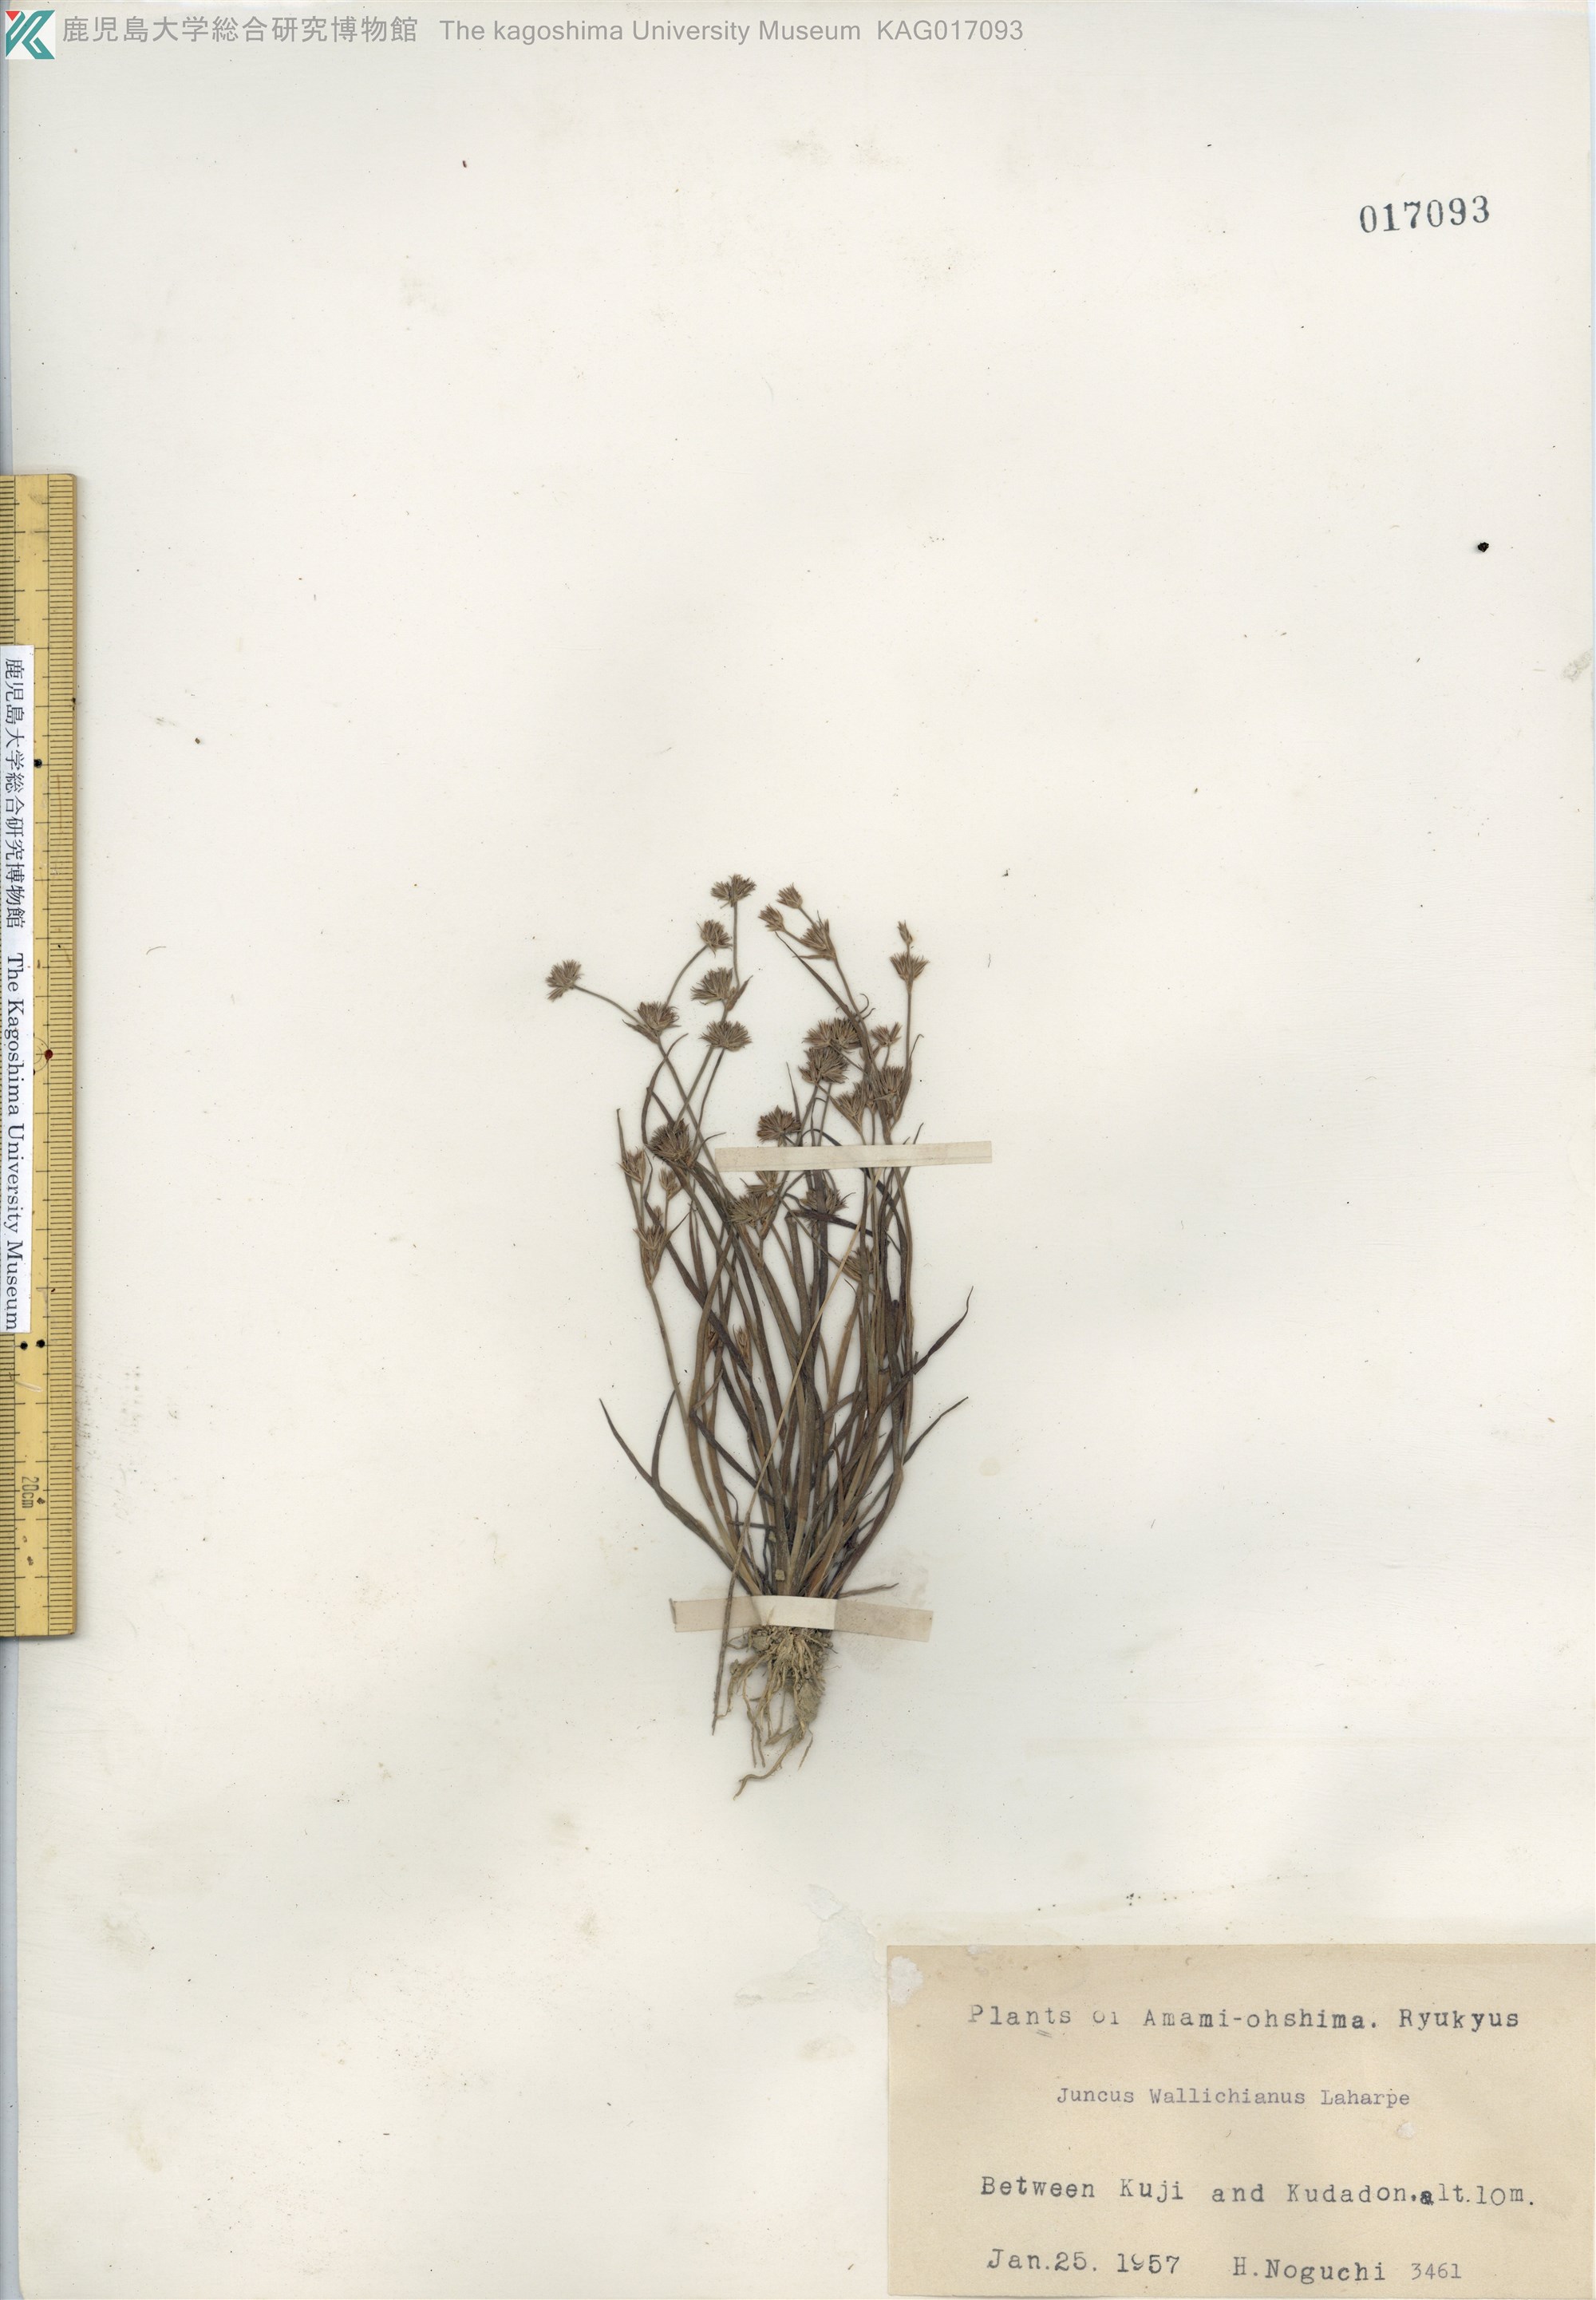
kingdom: Plantae
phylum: Tracheophyta
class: Liliopsida
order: Poales
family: Juncaceae
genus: Juncus
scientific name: Juncus prismatocarpus
